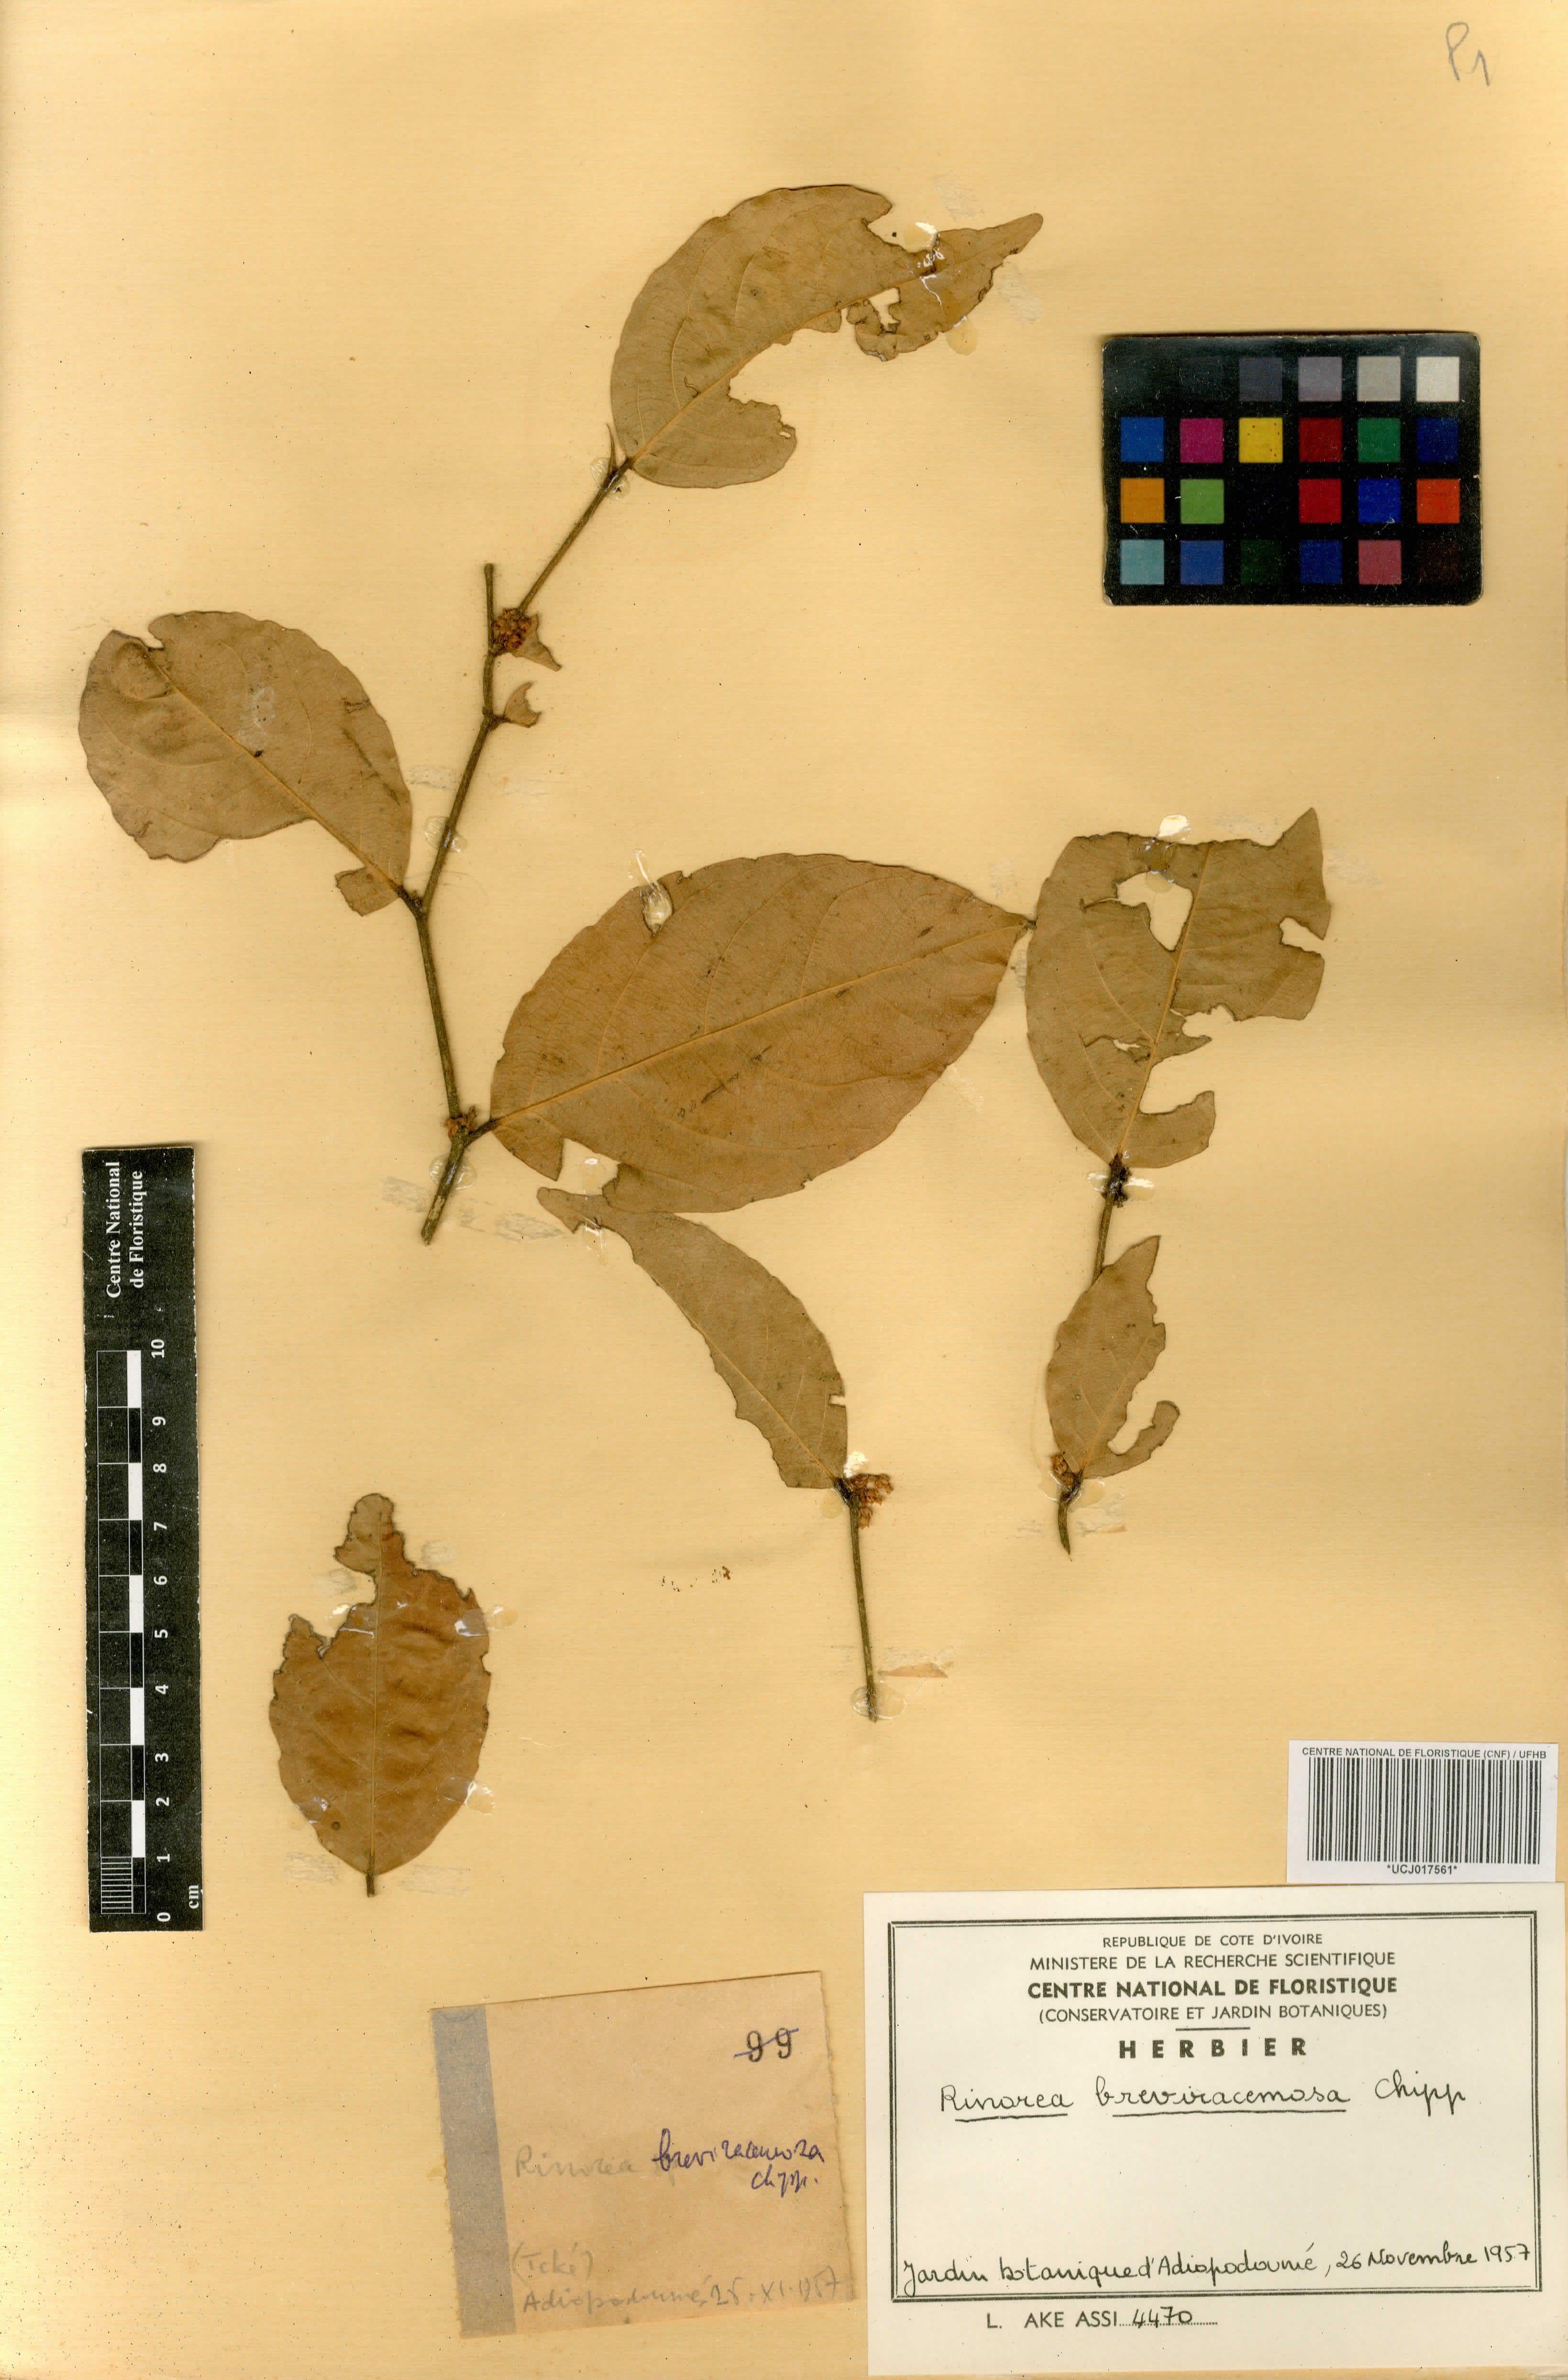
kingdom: Plantae
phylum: Tracheophyta
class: Magnoliopsida
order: Malpighiales
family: Violaceae
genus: Rinorea
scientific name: Rinorea breviracemosa
